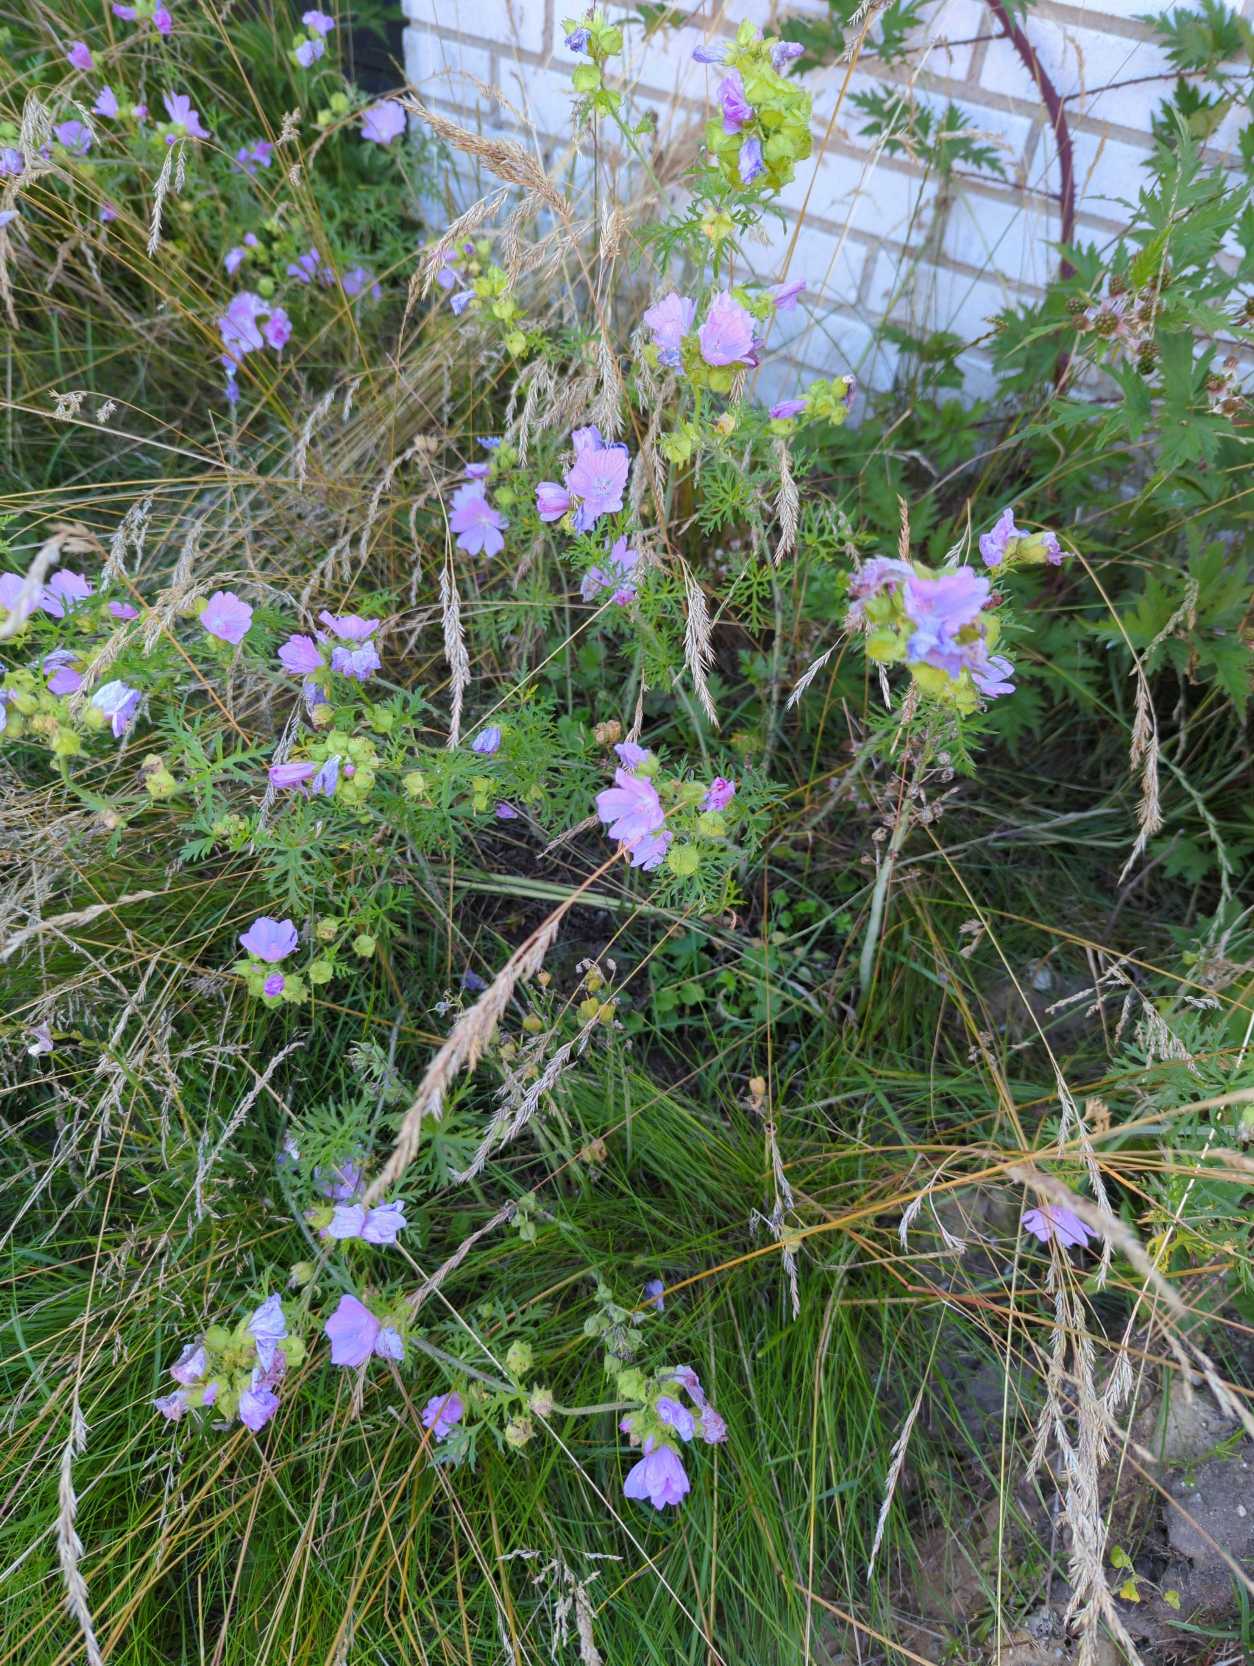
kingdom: Plantae
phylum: Tracheophyta
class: Magnoliopsida
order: Malvales
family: Malvaceae
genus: Malva
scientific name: Malva moschata
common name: Moskus-katost
